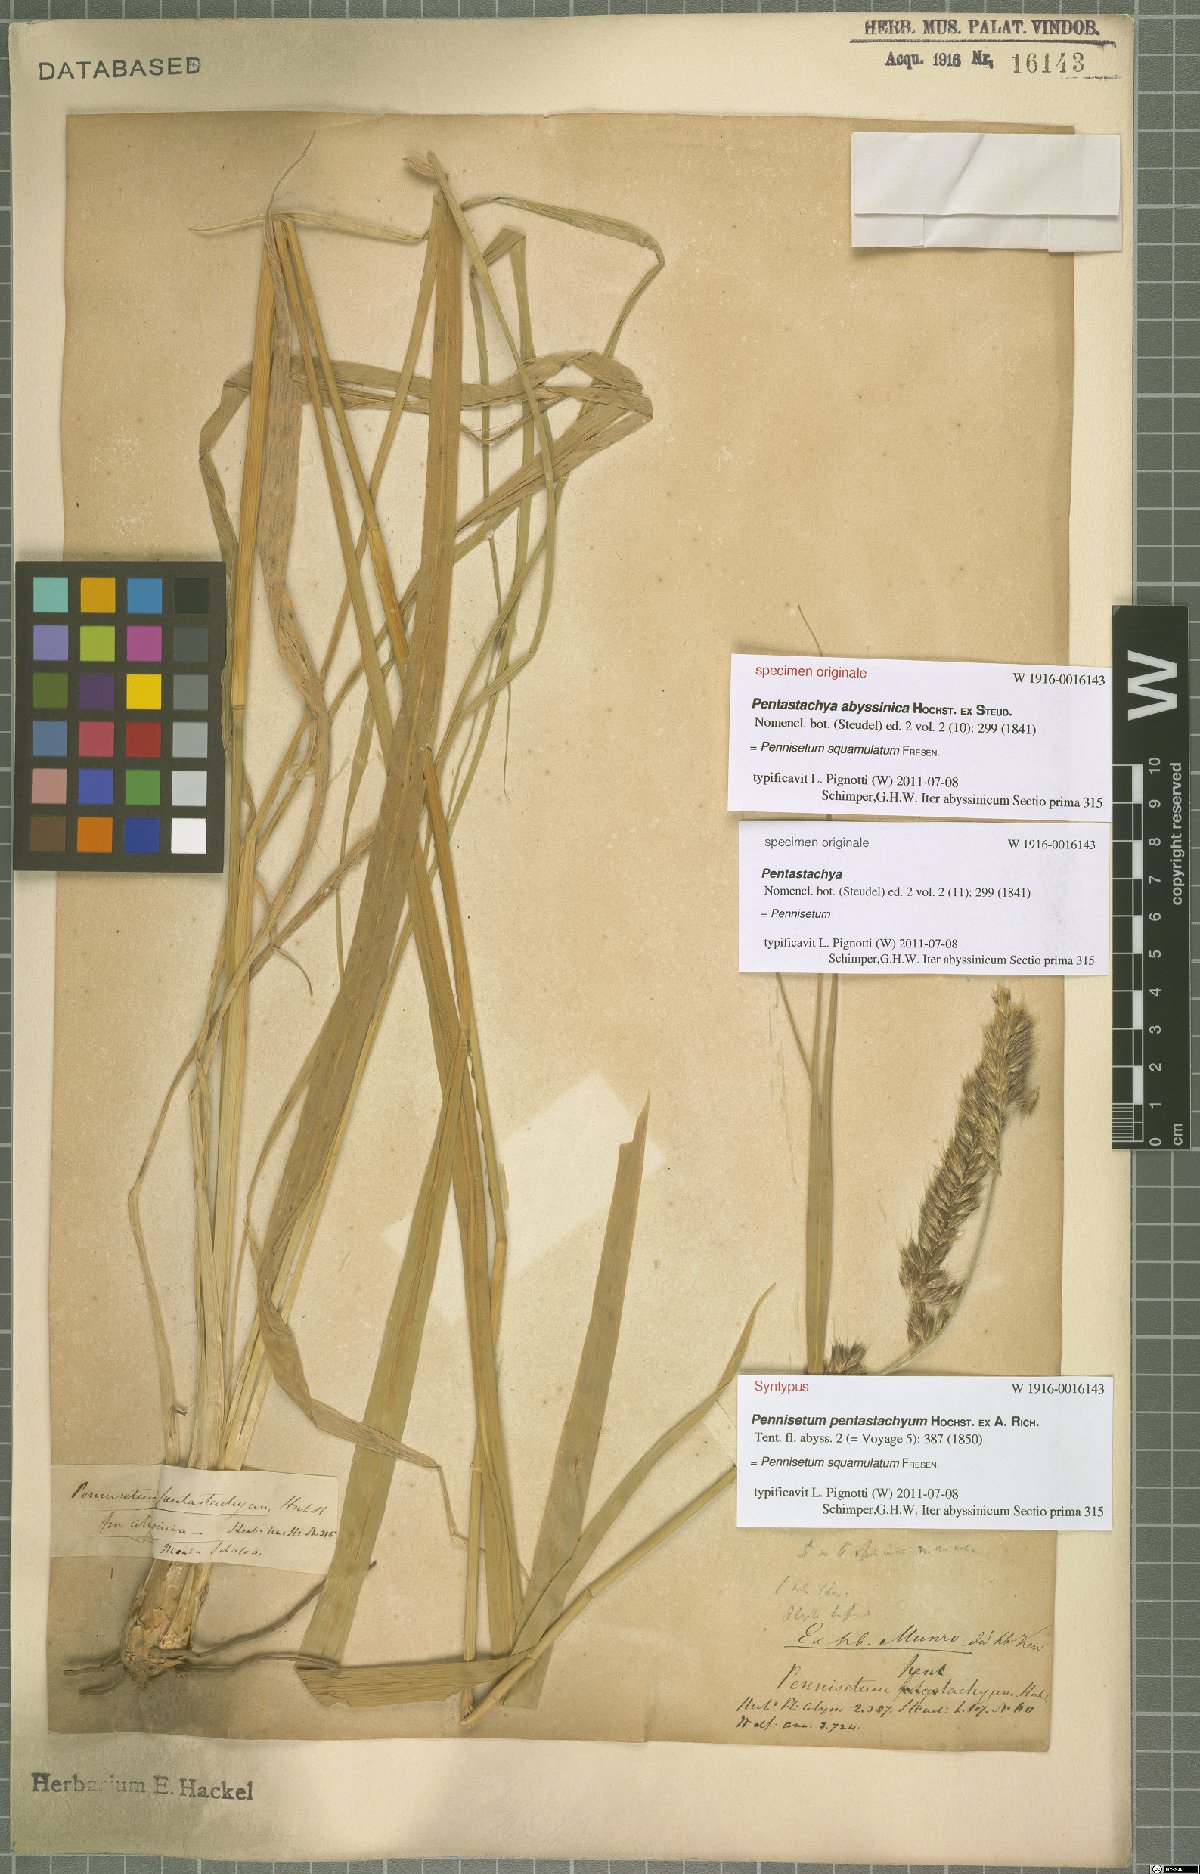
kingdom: Plantae
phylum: Tracheophyta
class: Liliopsida
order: Poales
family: Poaceae
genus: Cenchrus
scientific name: Cenchrus squamulatus
